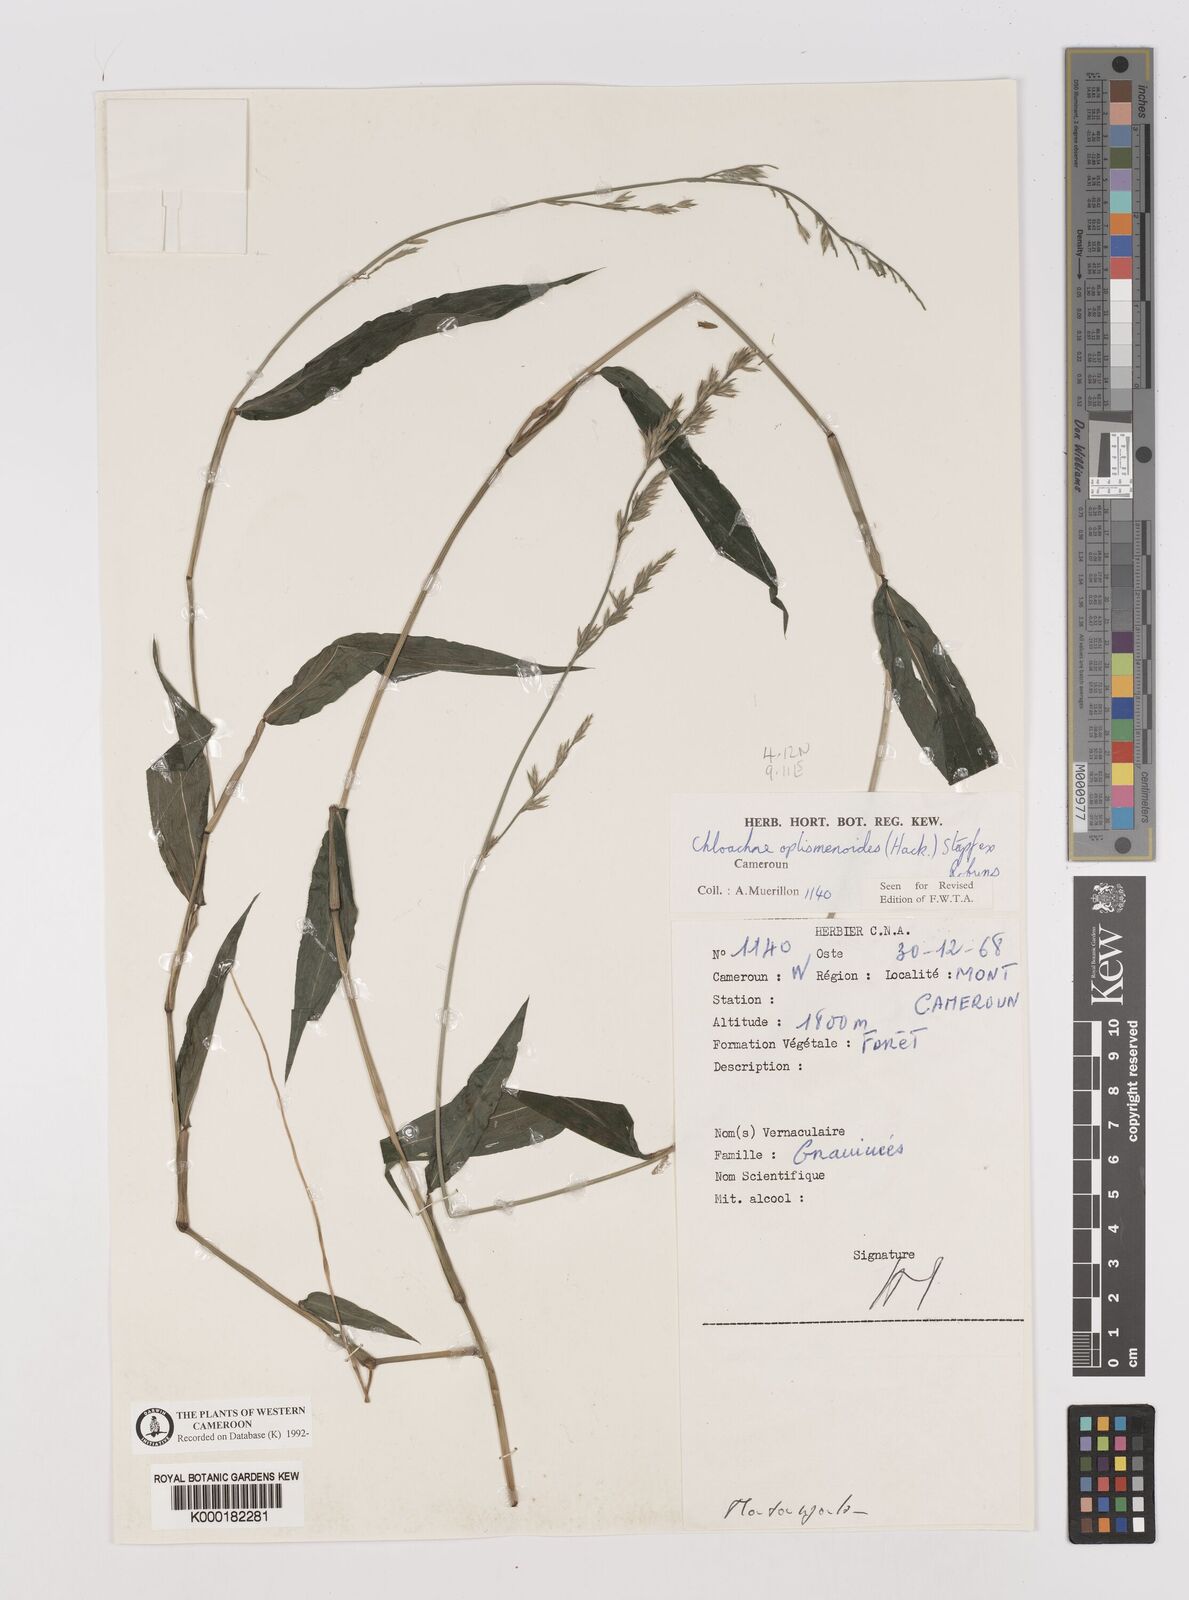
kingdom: Plantae
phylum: Tracheophyta
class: Liliopsida
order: Poales
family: Poaceae
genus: Poecilostachys
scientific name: Poecilostachys oplismenoides
